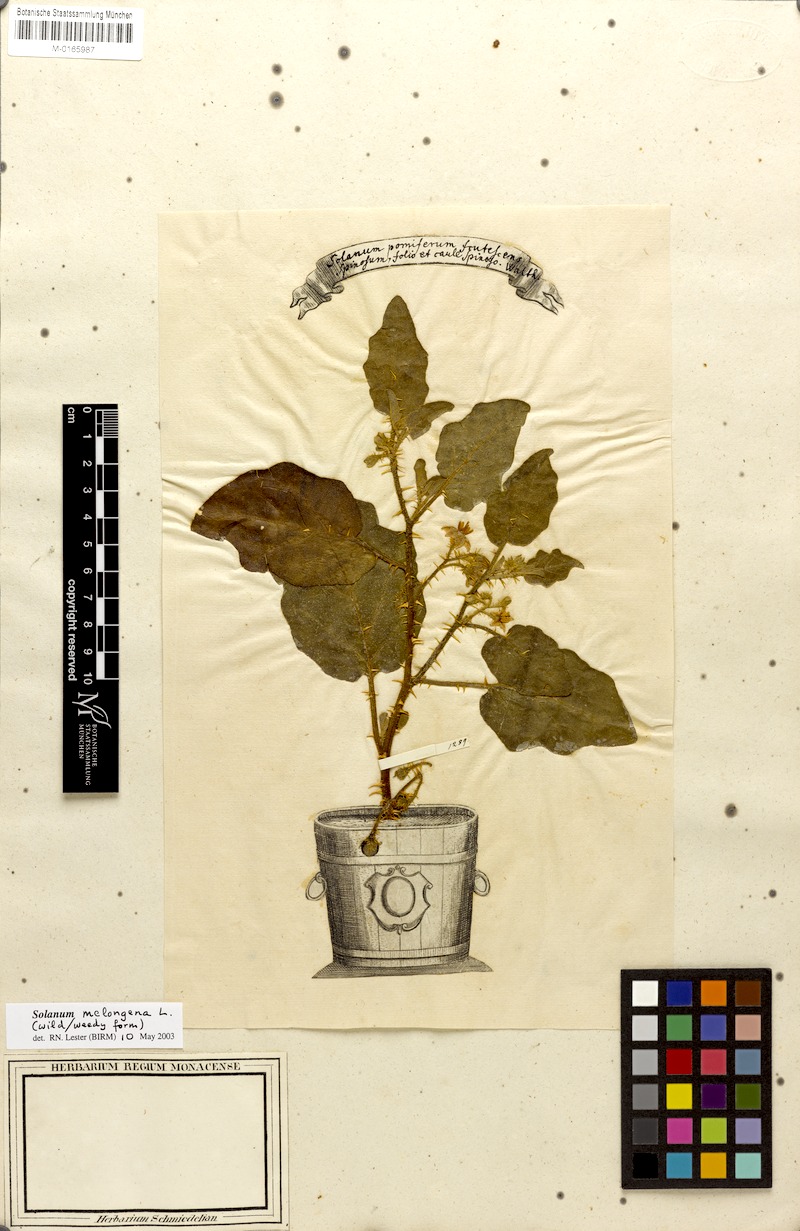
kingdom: Plantae
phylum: Tracheophyta
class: Magnoliopsida
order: Solanales
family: Solanaceae
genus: Solanum
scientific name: Solanum melongena
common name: Eggplant
